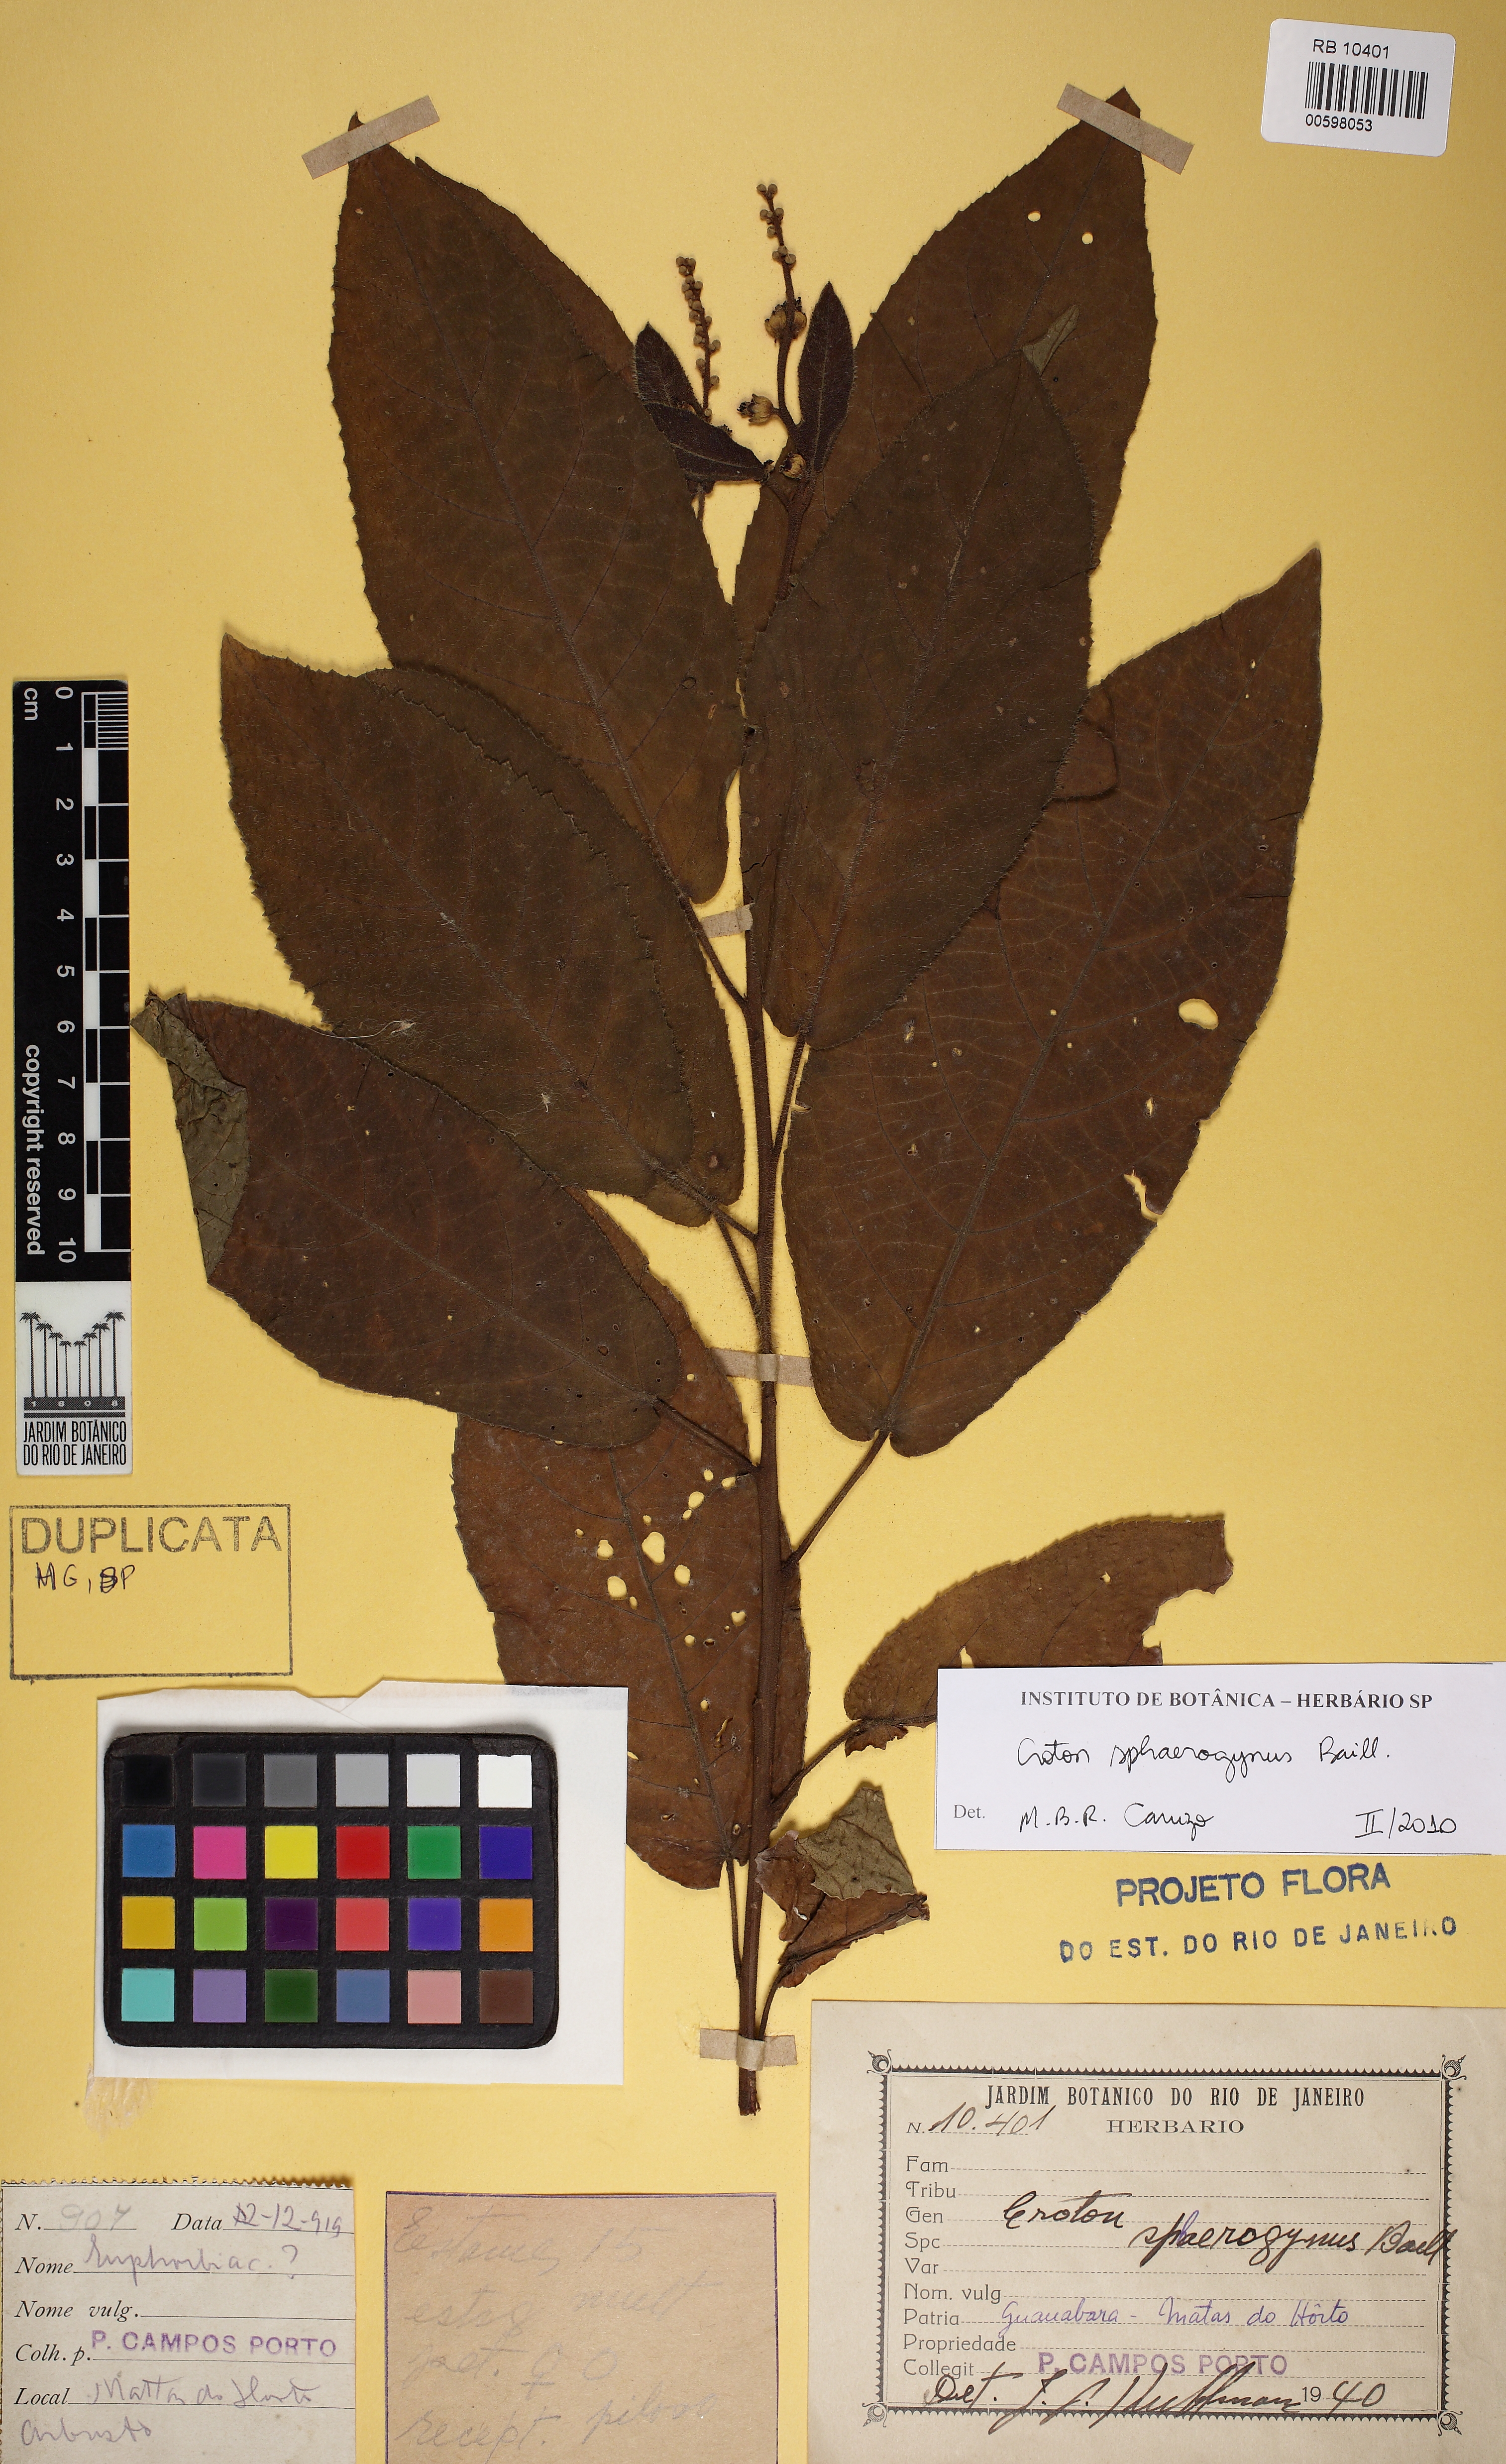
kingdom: Plantae
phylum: Tracheophyta
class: Magnoliopsida
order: Malpighiales
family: Euphorbiaceae
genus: Croton
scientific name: Croton sphaerogynus
